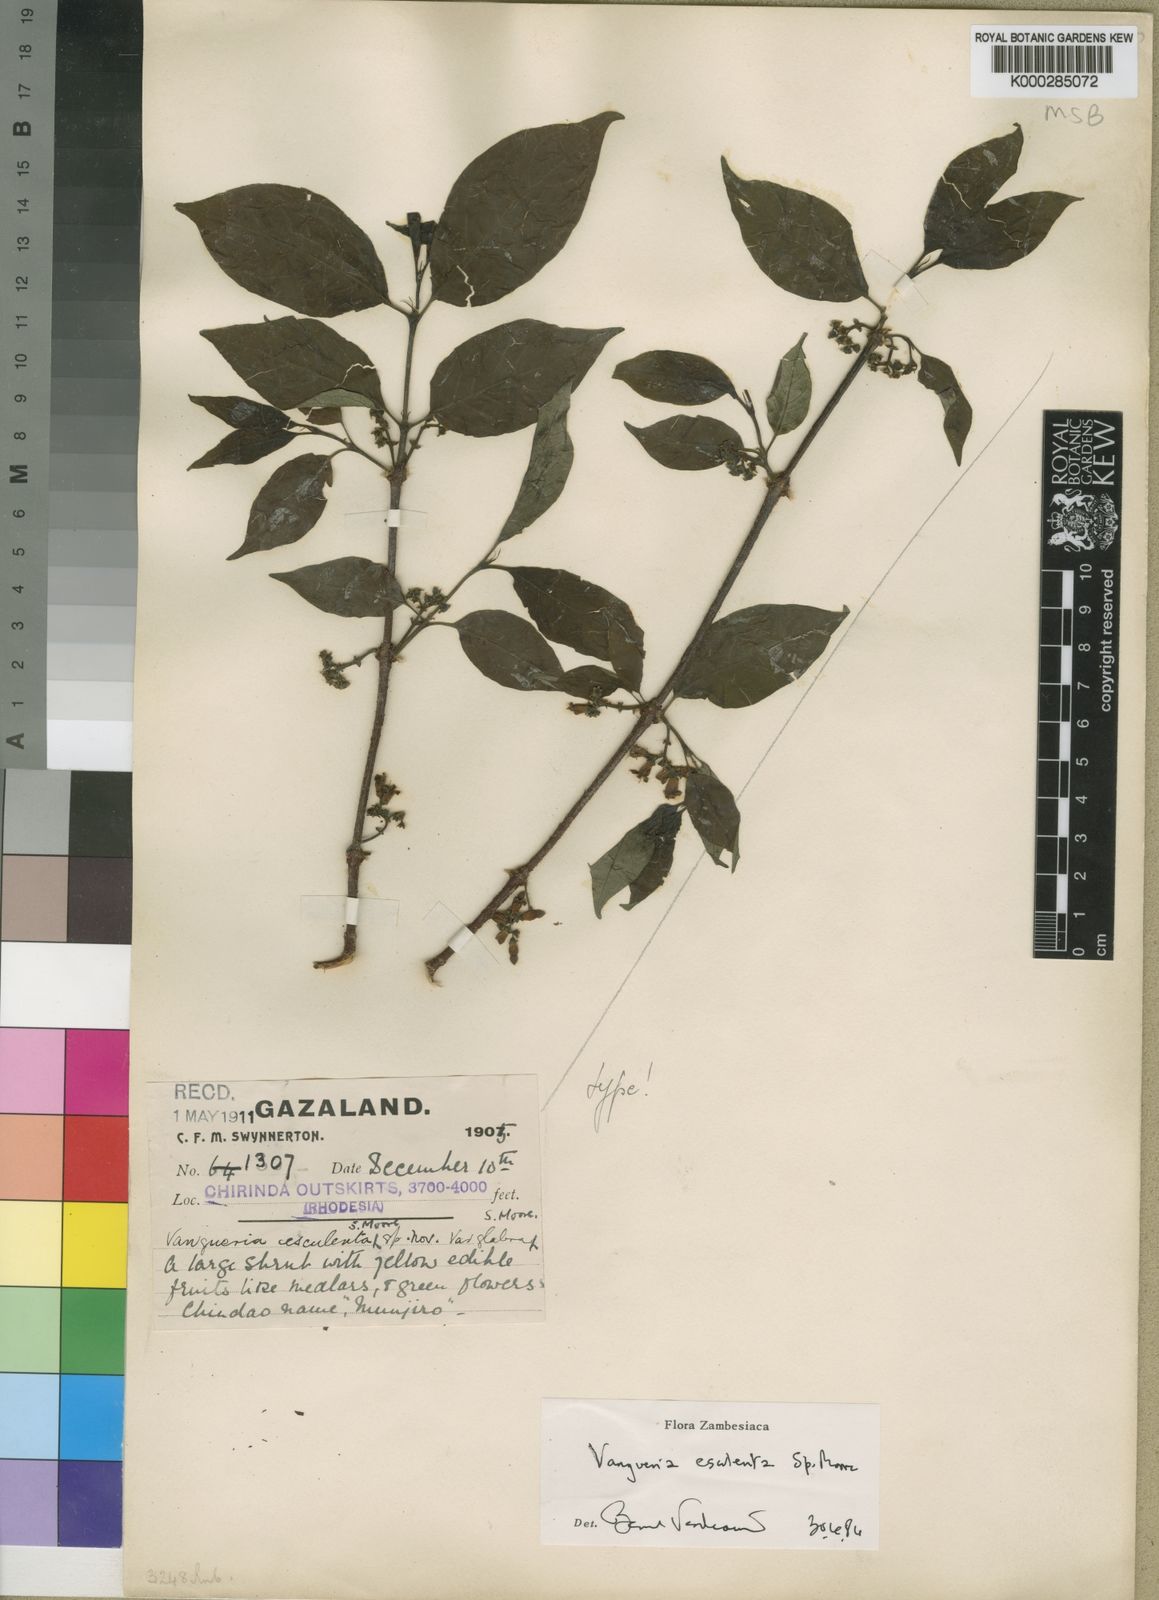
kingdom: Plantae
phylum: Tracheophyta
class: Magnoliopsida
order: Gentianales
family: Rubiaceae
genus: Vangueria
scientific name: Vangueria esculenta
